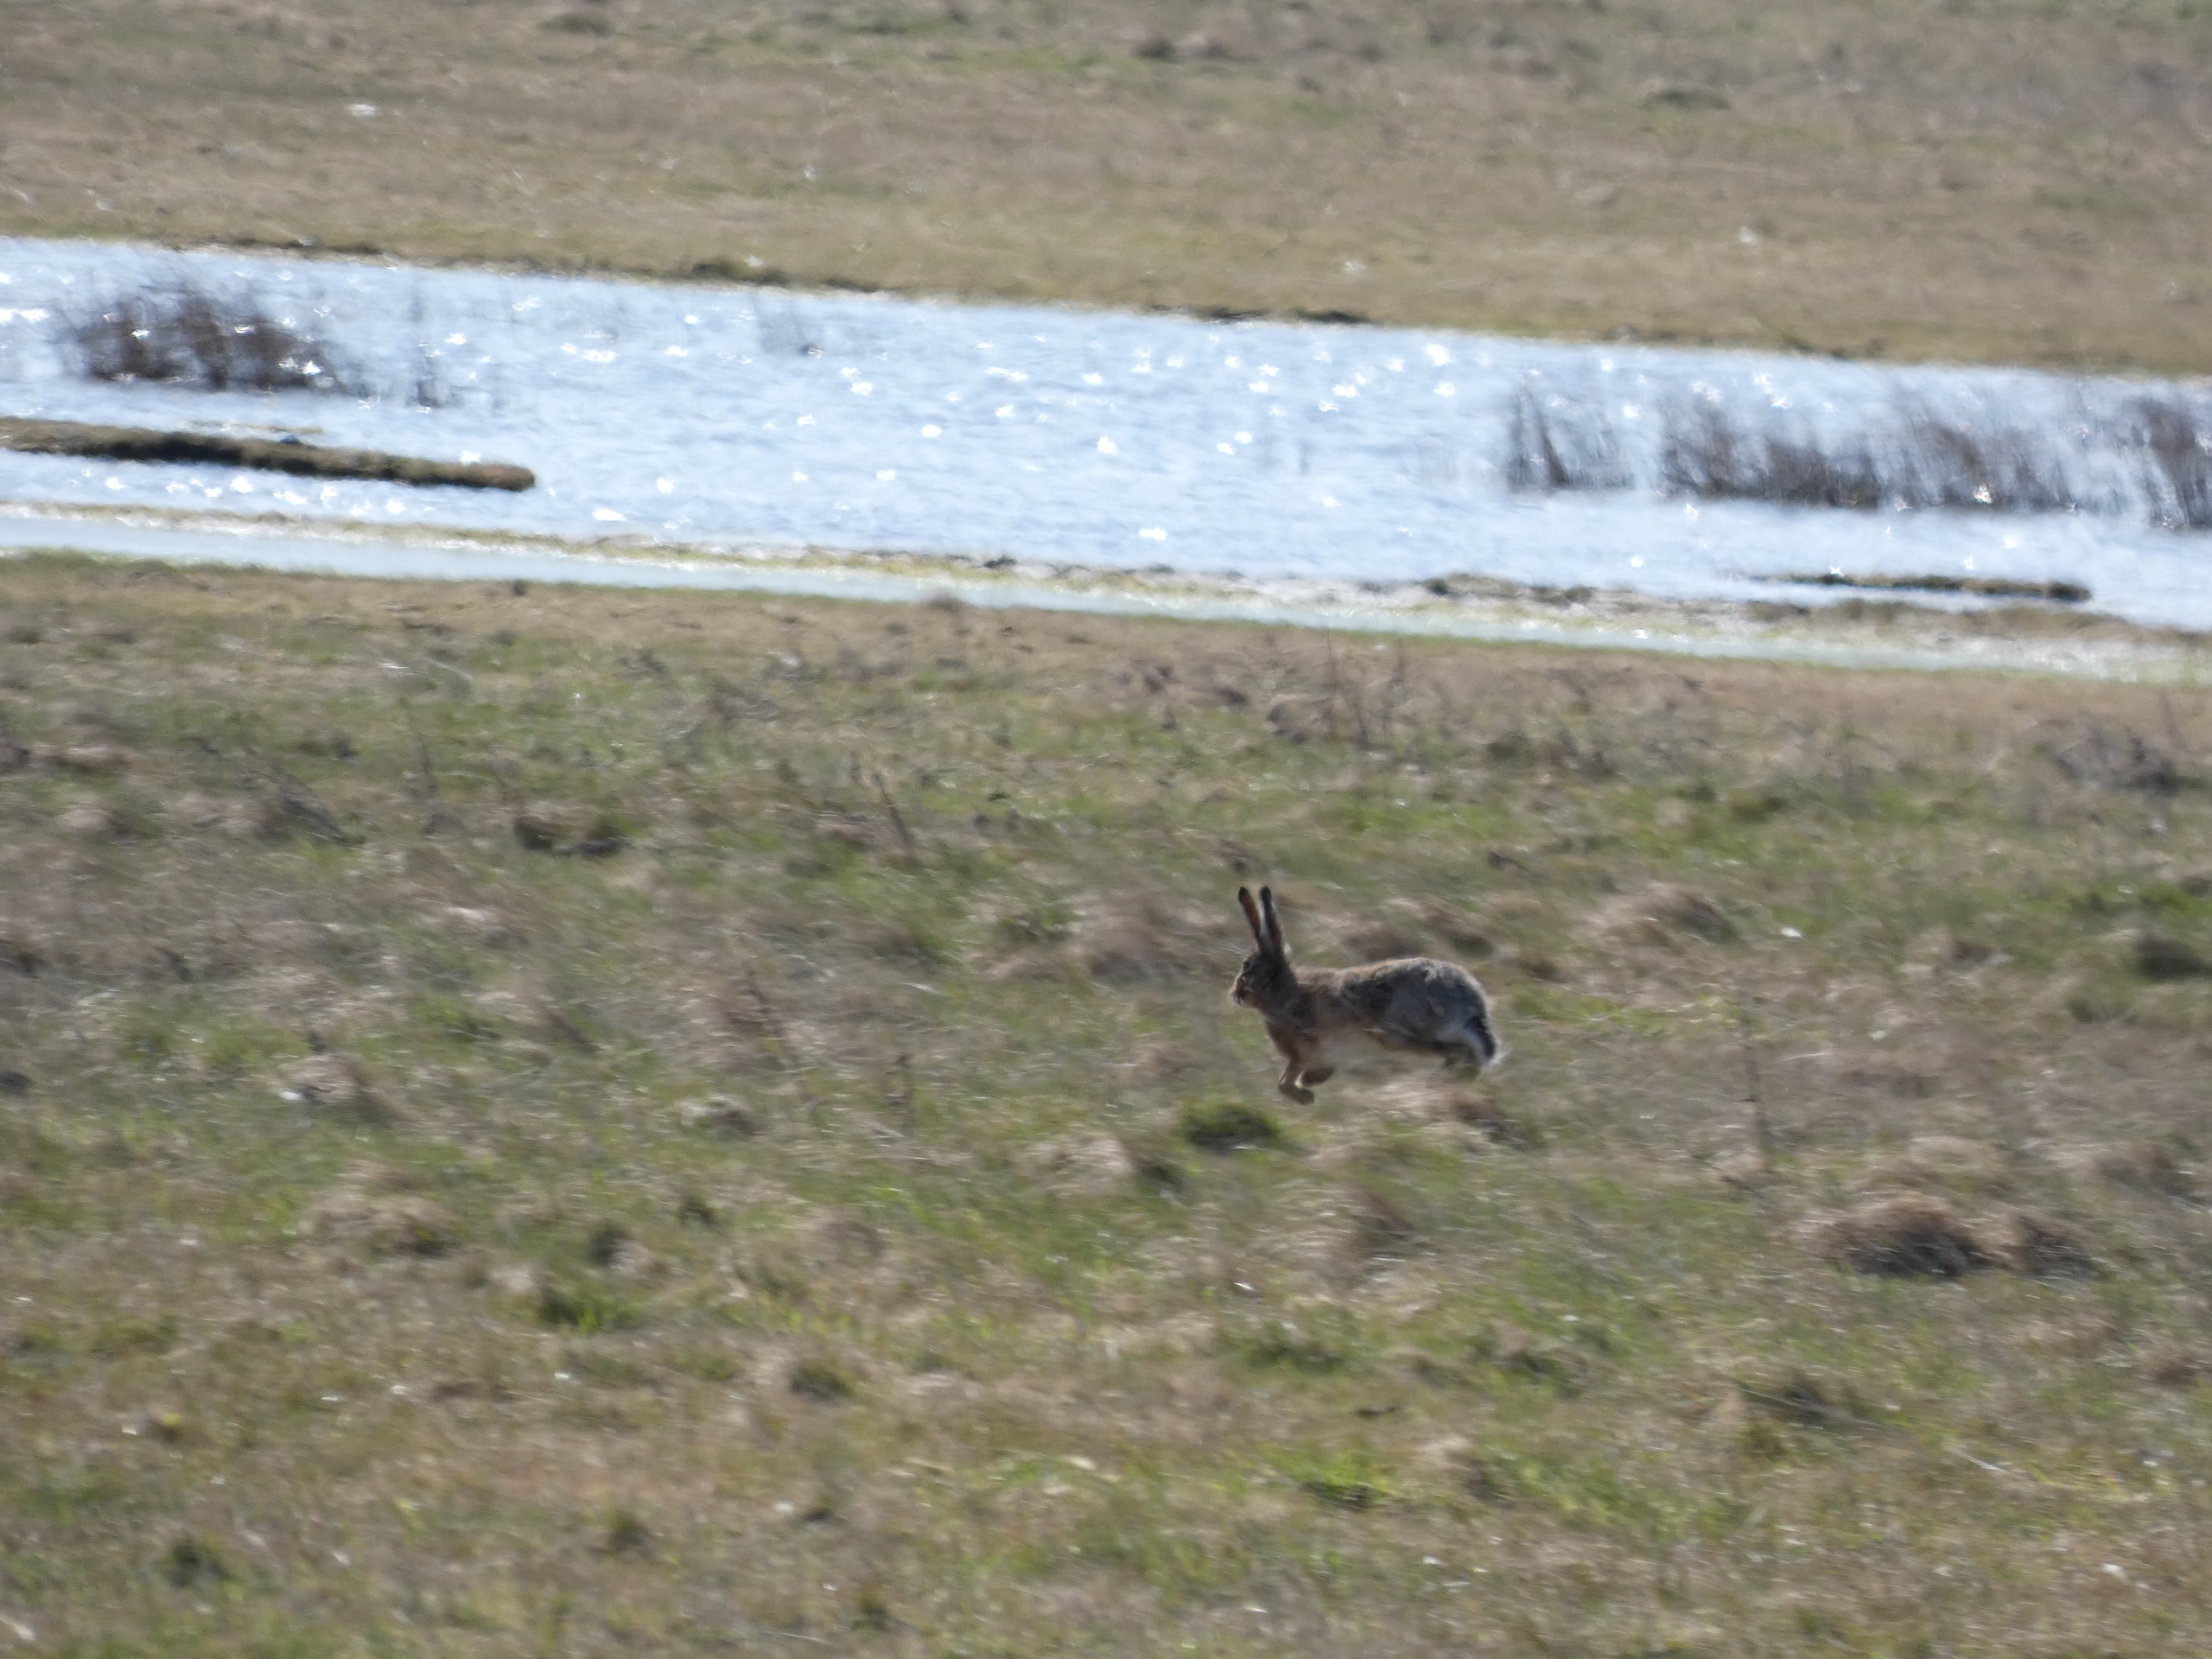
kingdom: Animalia
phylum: Chordata
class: Mammalia
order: Lagomorpha
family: Leporidae
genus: Lepus
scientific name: Lepus europaeus
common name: Hare
